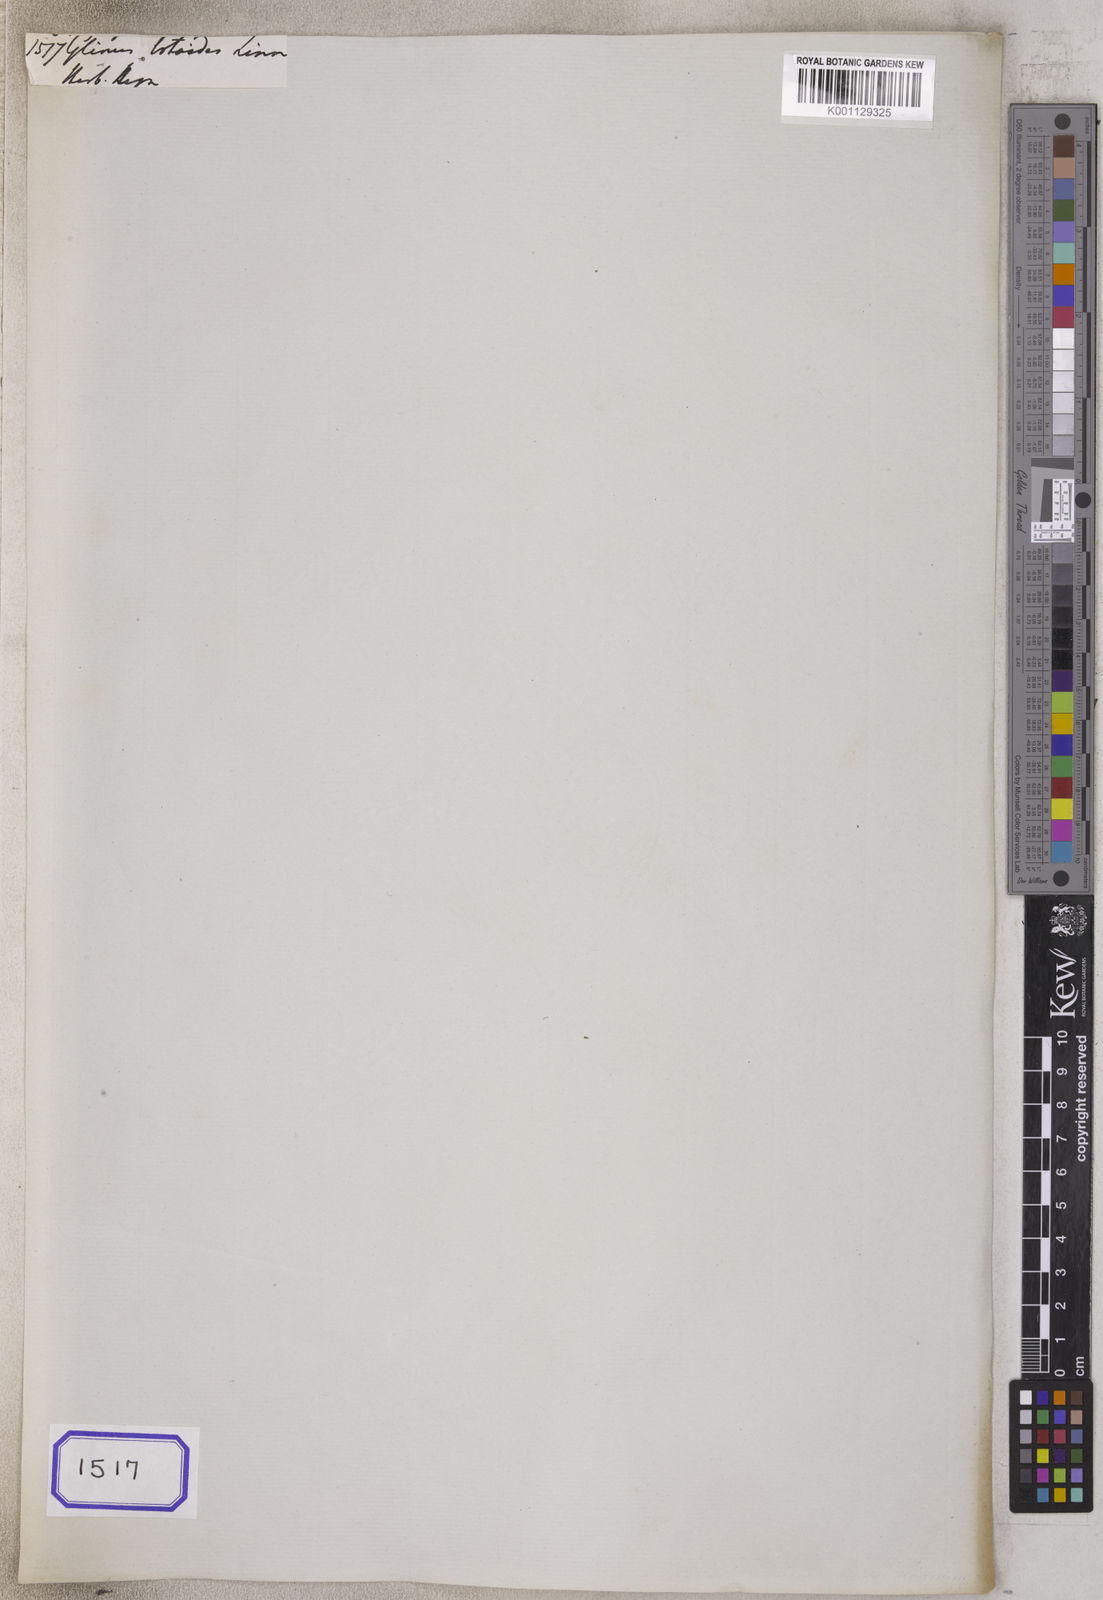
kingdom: Plantae
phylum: Tracheophyta
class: Magnoliopsida
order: Caryophyllales
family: Molluginaceae
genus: Glinus
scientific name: Glinus lotoides
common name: Lotus sweetjuice
